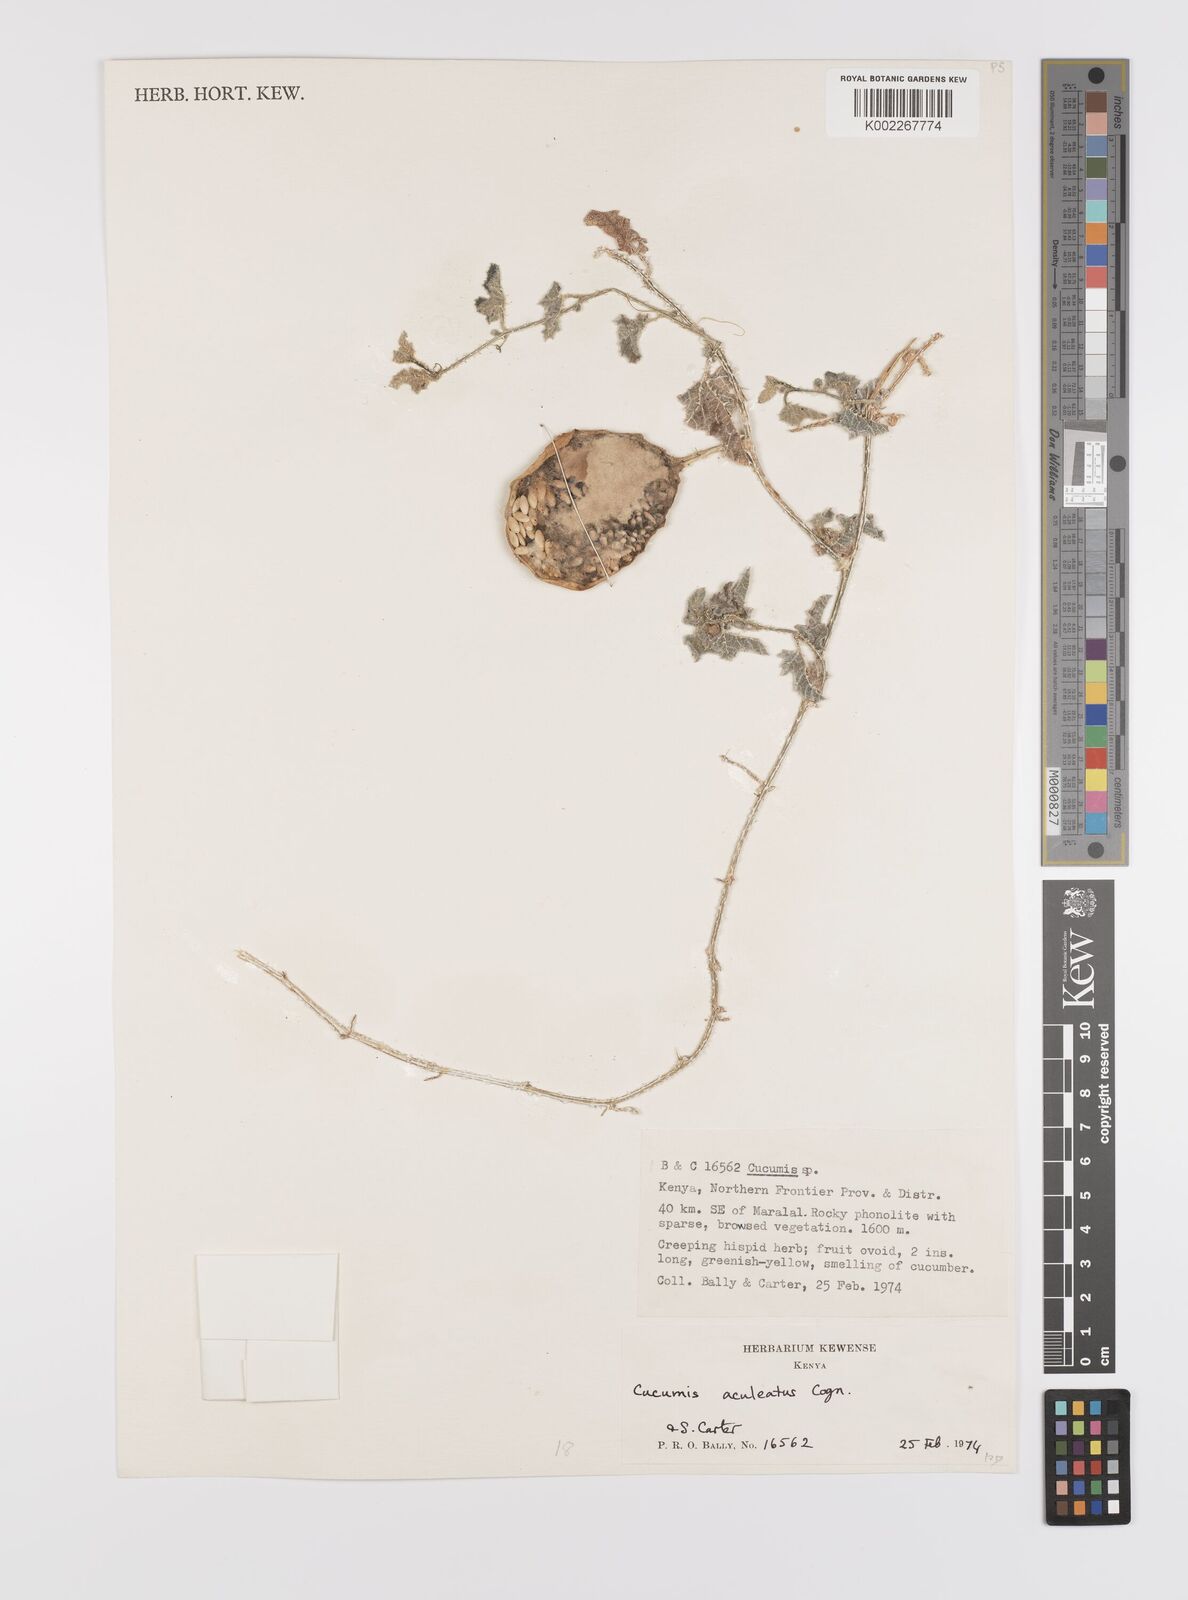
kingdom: Plantae
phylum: Tracheophyta
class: Magnoliopsida
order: Cucurbitales
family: Cucurbitaceae
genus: Cucumis
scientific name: Cucumis aculeatus
